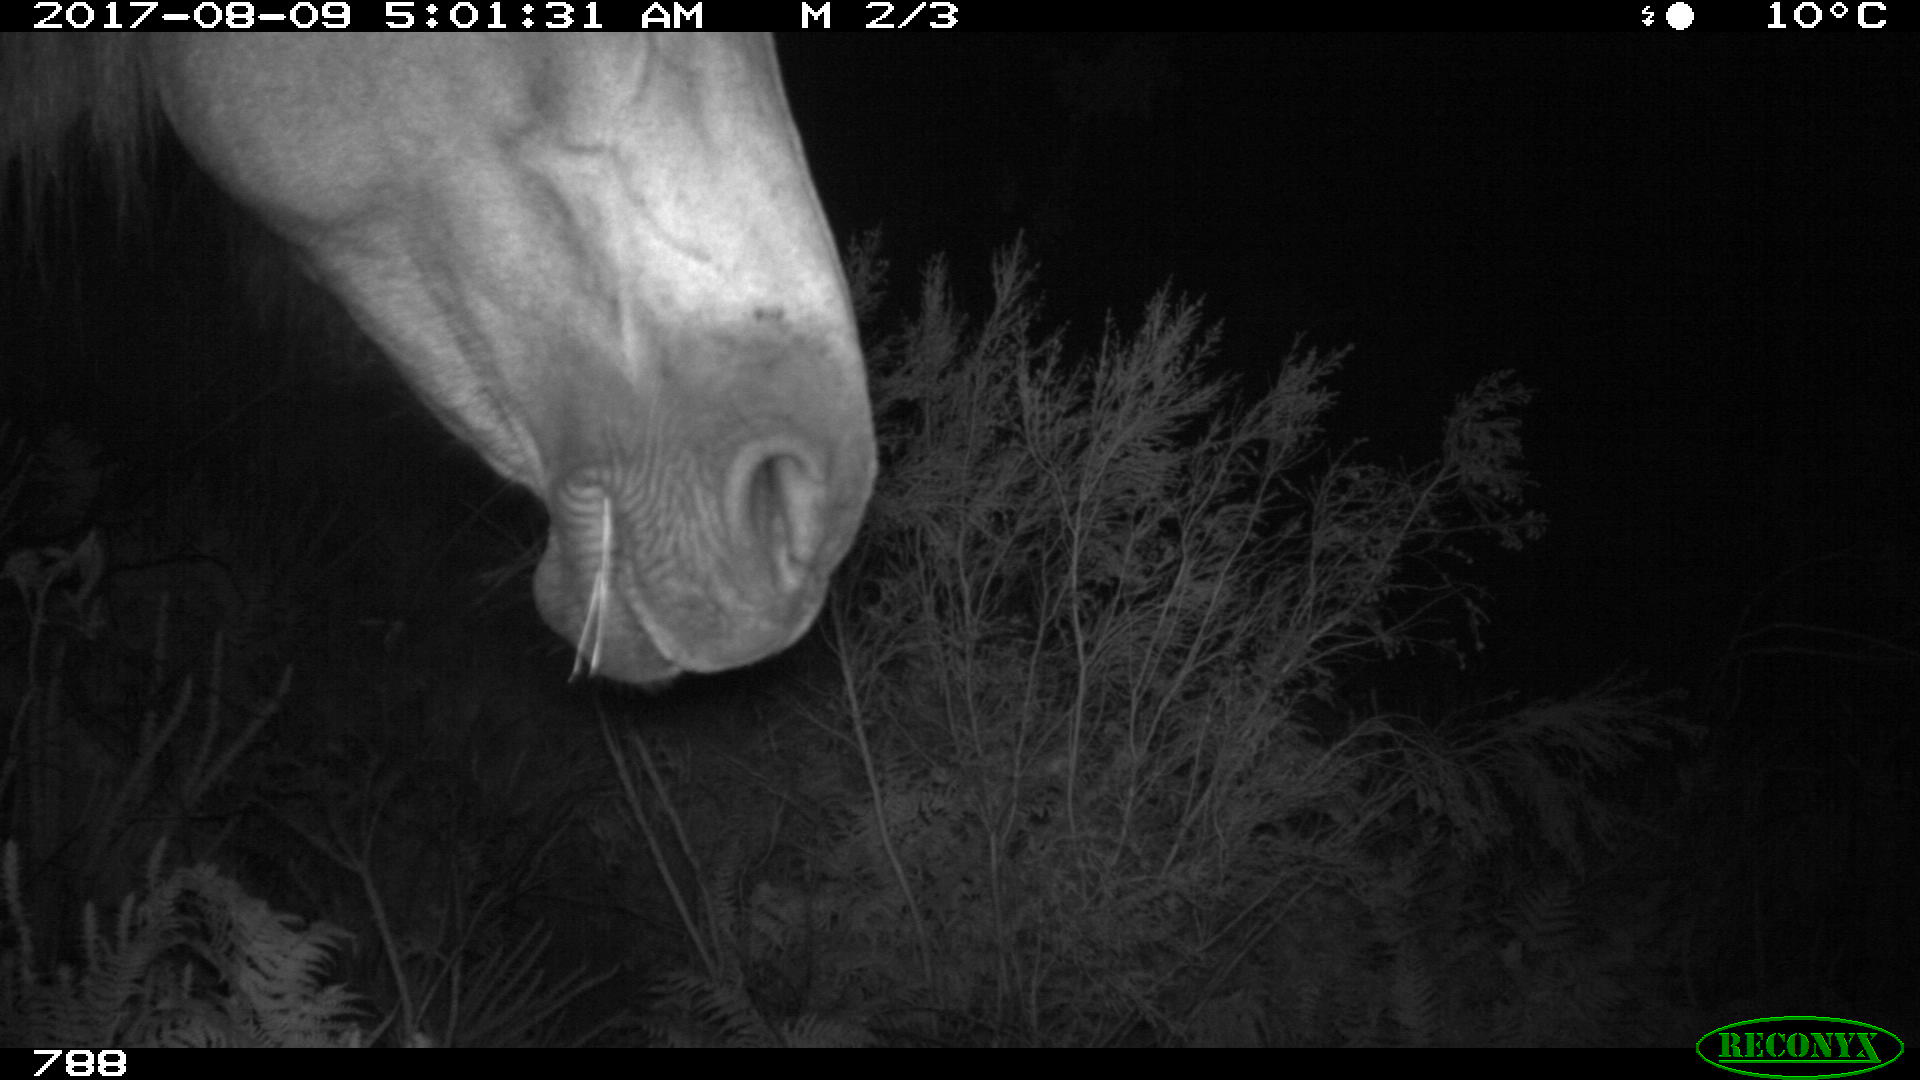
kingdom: Animalia
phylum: Chordata
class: Mammalia
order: Perissodactyla
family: Equidae
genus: Equus
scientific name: Equus caballus
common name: Horse
